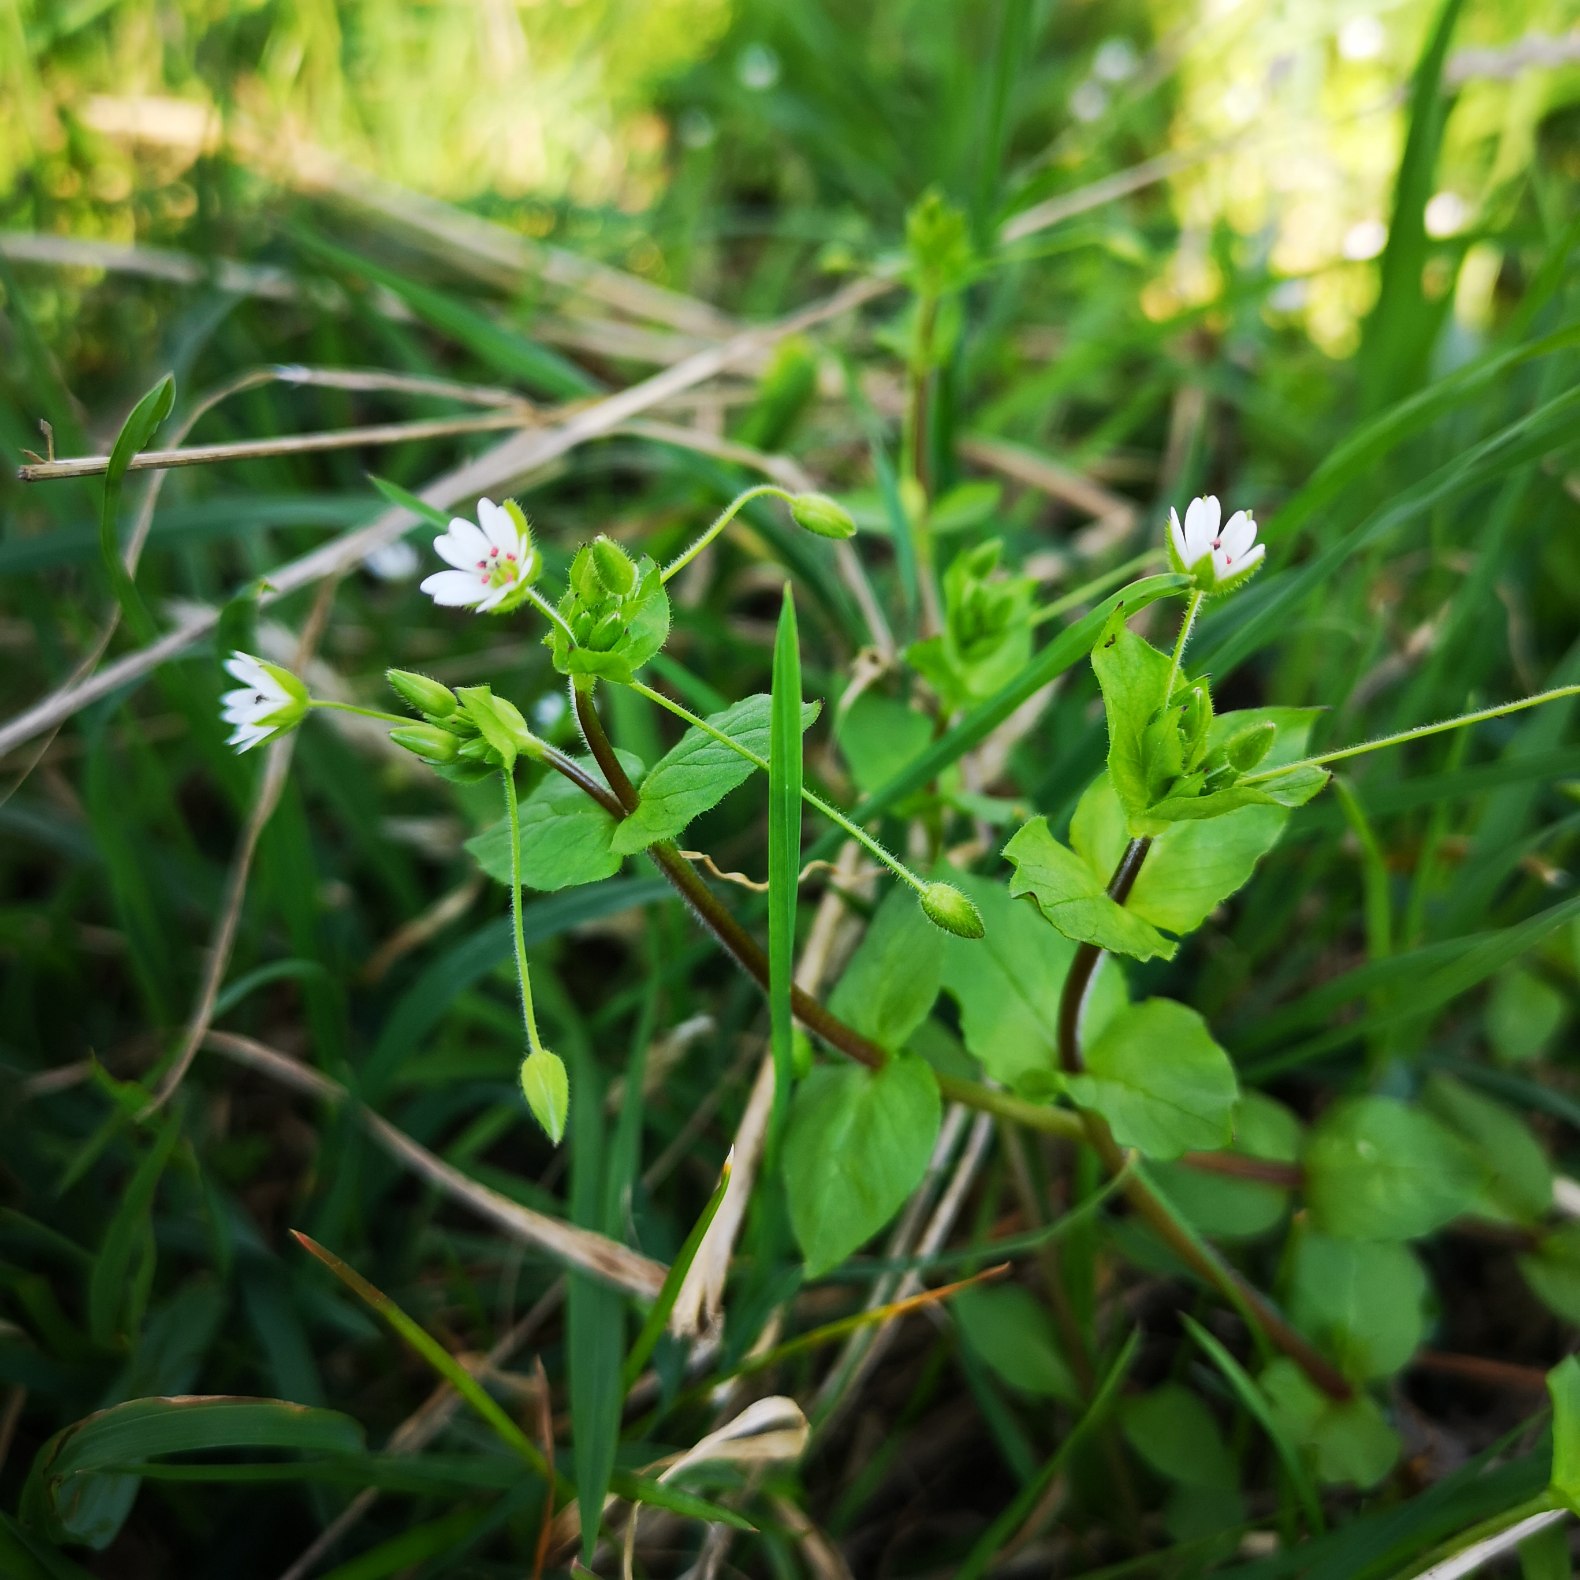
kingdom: Plantae
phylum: Tracheophyta
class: Magnoliopsida
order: Caryophyllales
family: Caryophyllaceae
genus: Stellaria
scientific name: Stellaria neglecta
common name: Skov-fuglegræs
